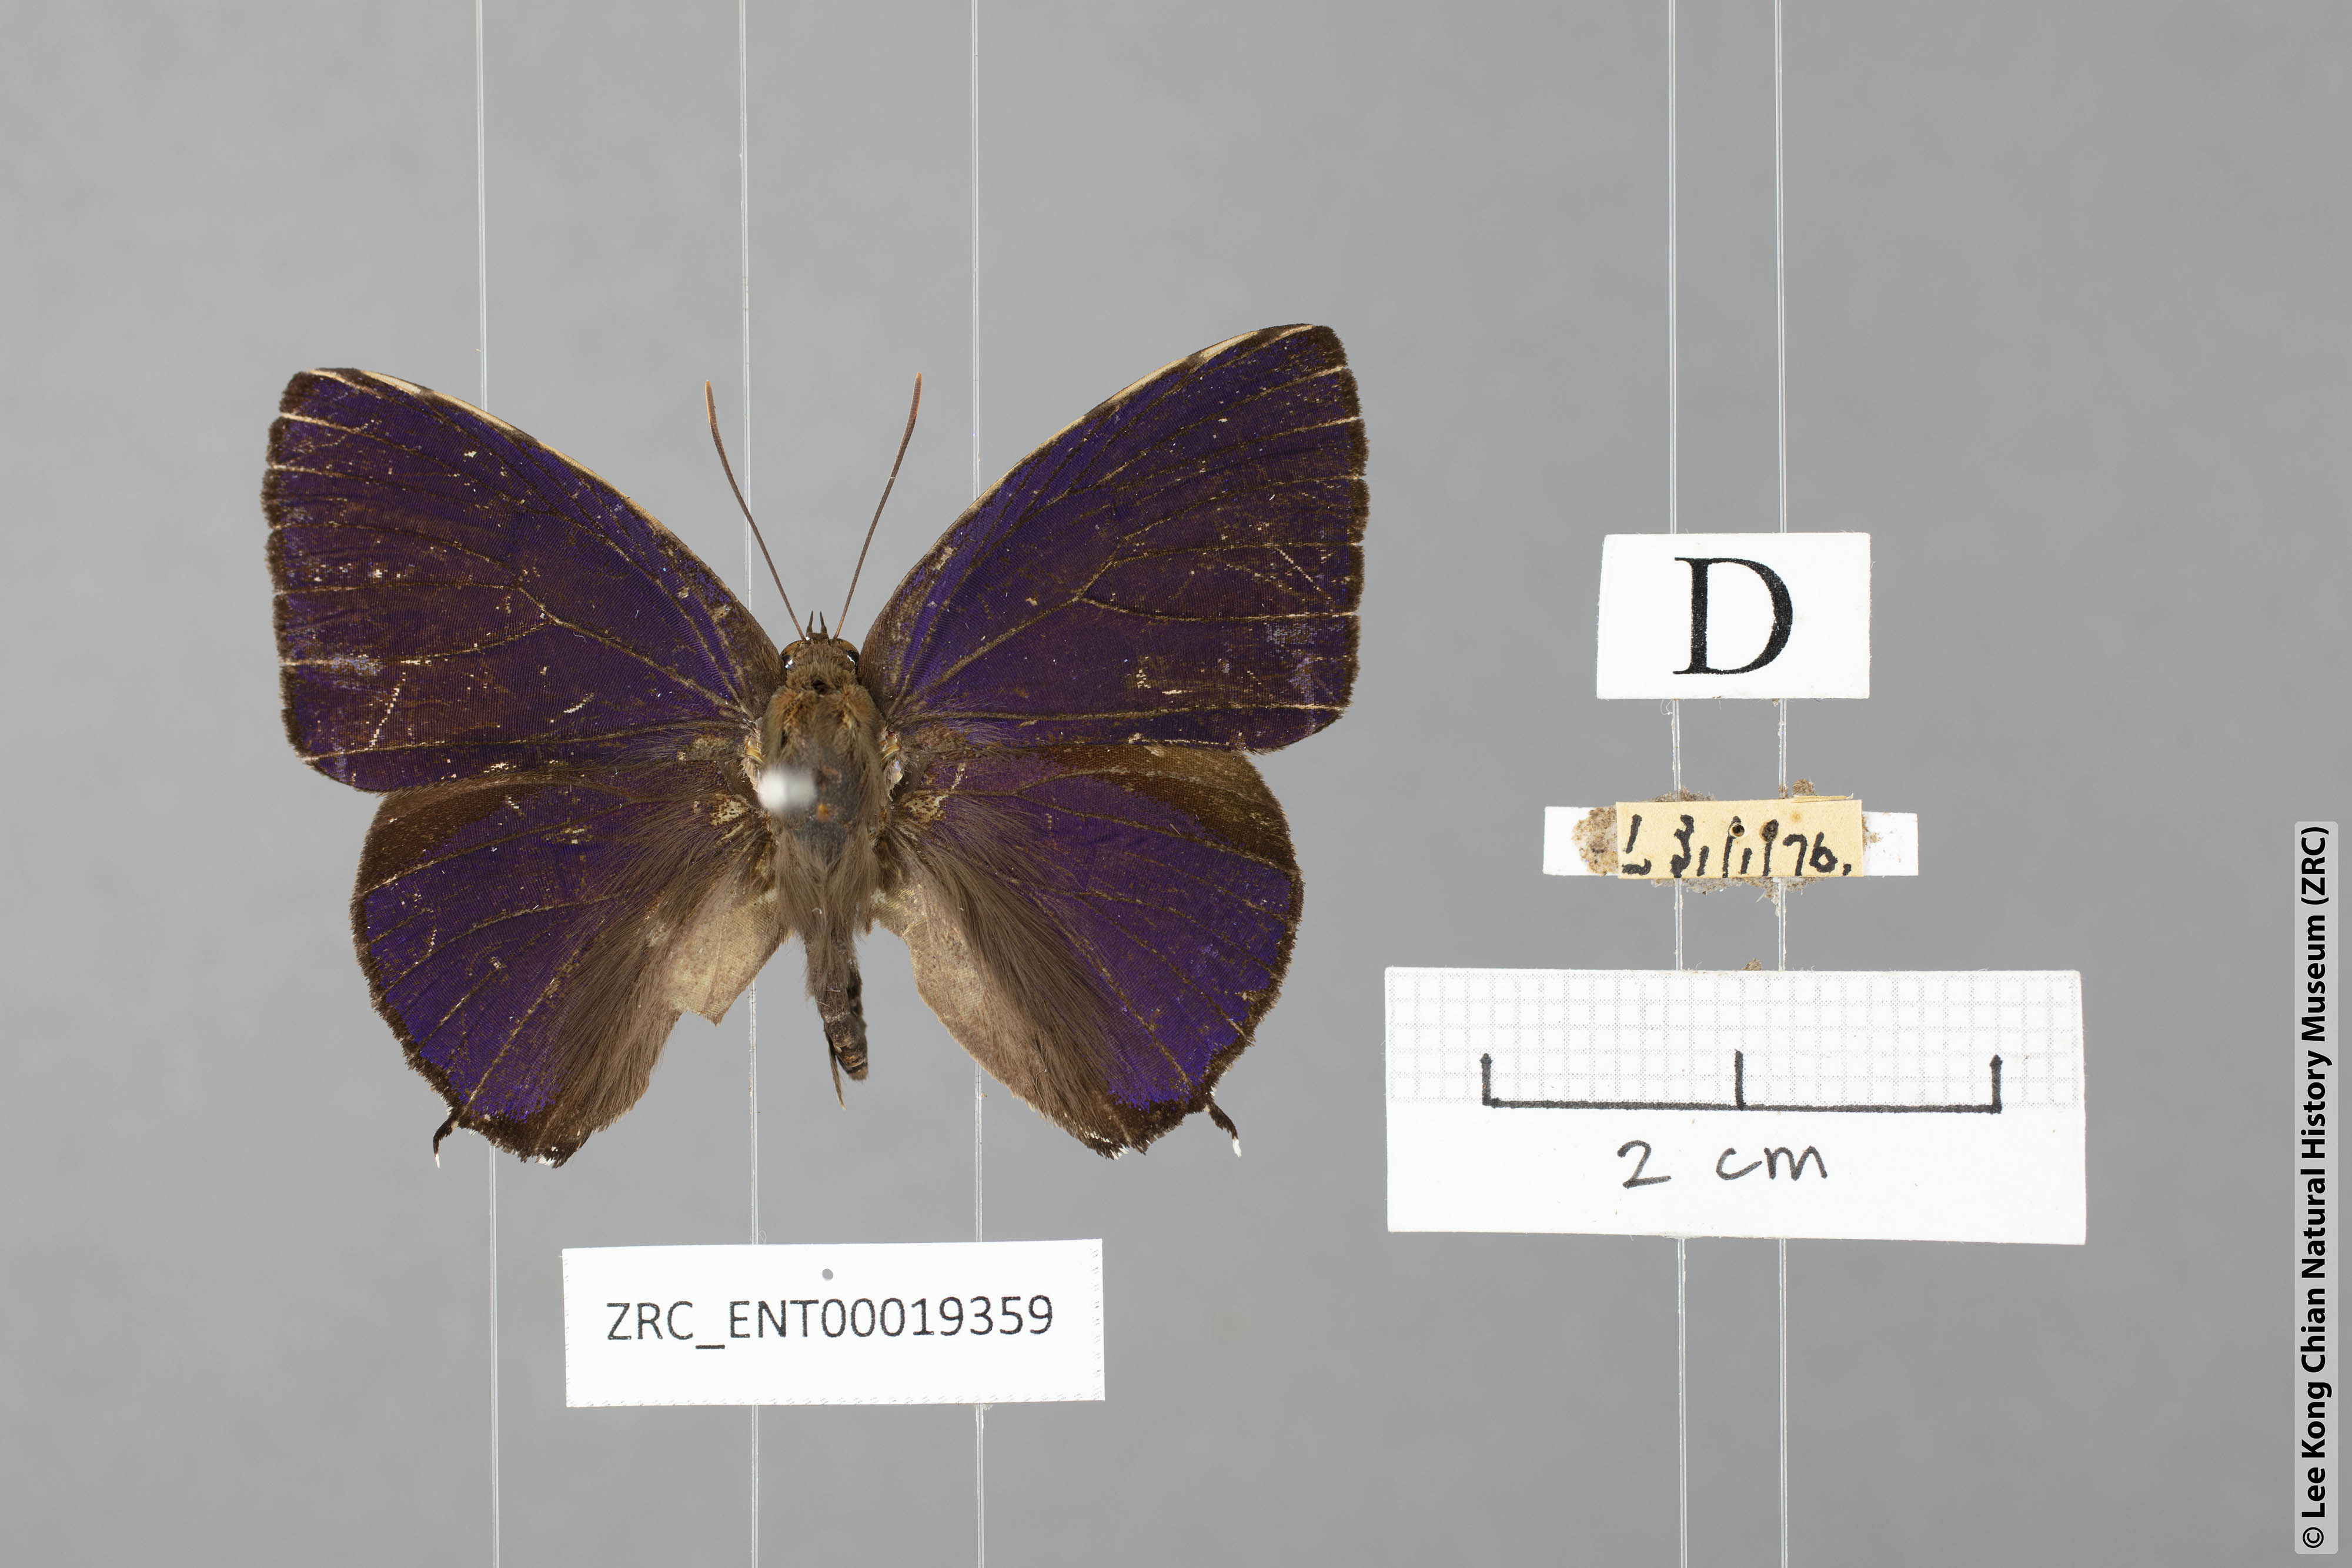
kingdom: Animalia
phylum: Arthropoda
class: Insecta
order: Lepidoptera
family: Lycaenidae
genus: Arhopala
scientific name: Arhopala corinda
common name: Ultramarine oakblue
